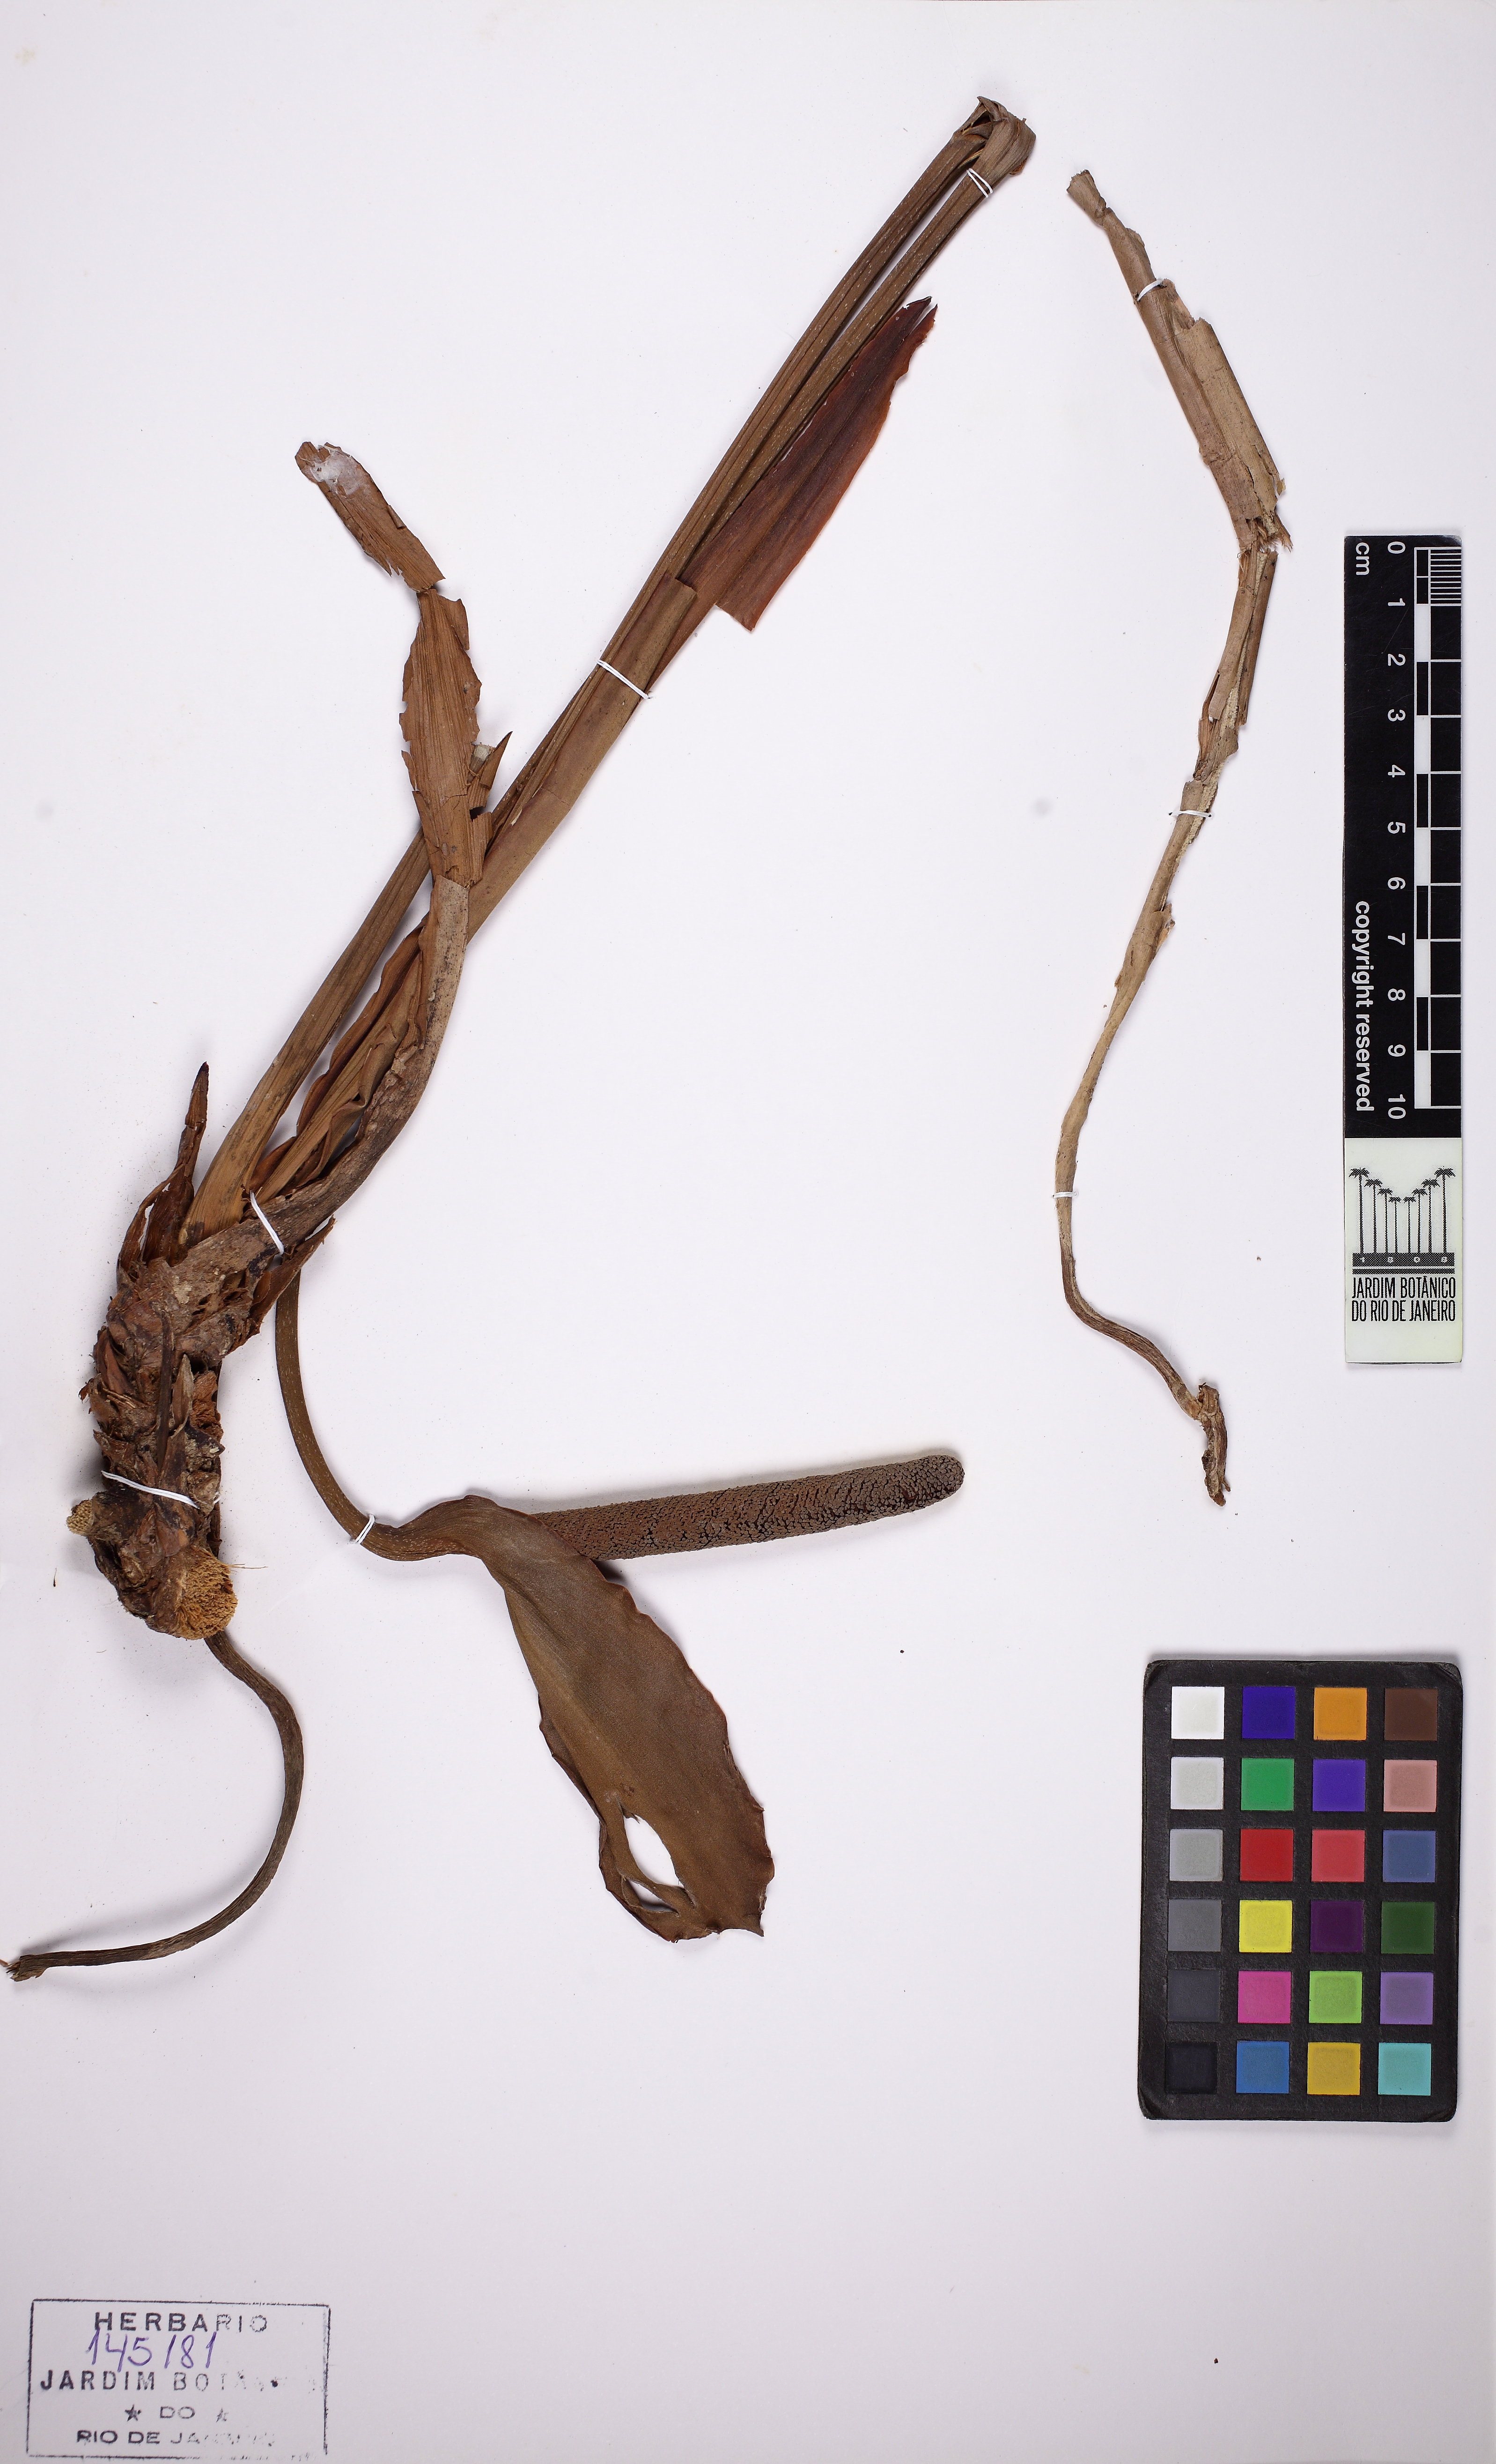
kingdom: Plantae
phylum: Tracheophyta
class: Liliopsida
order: Alismatales
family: Araceae
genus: Anthurium
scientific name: Anthurium cucullispathum
